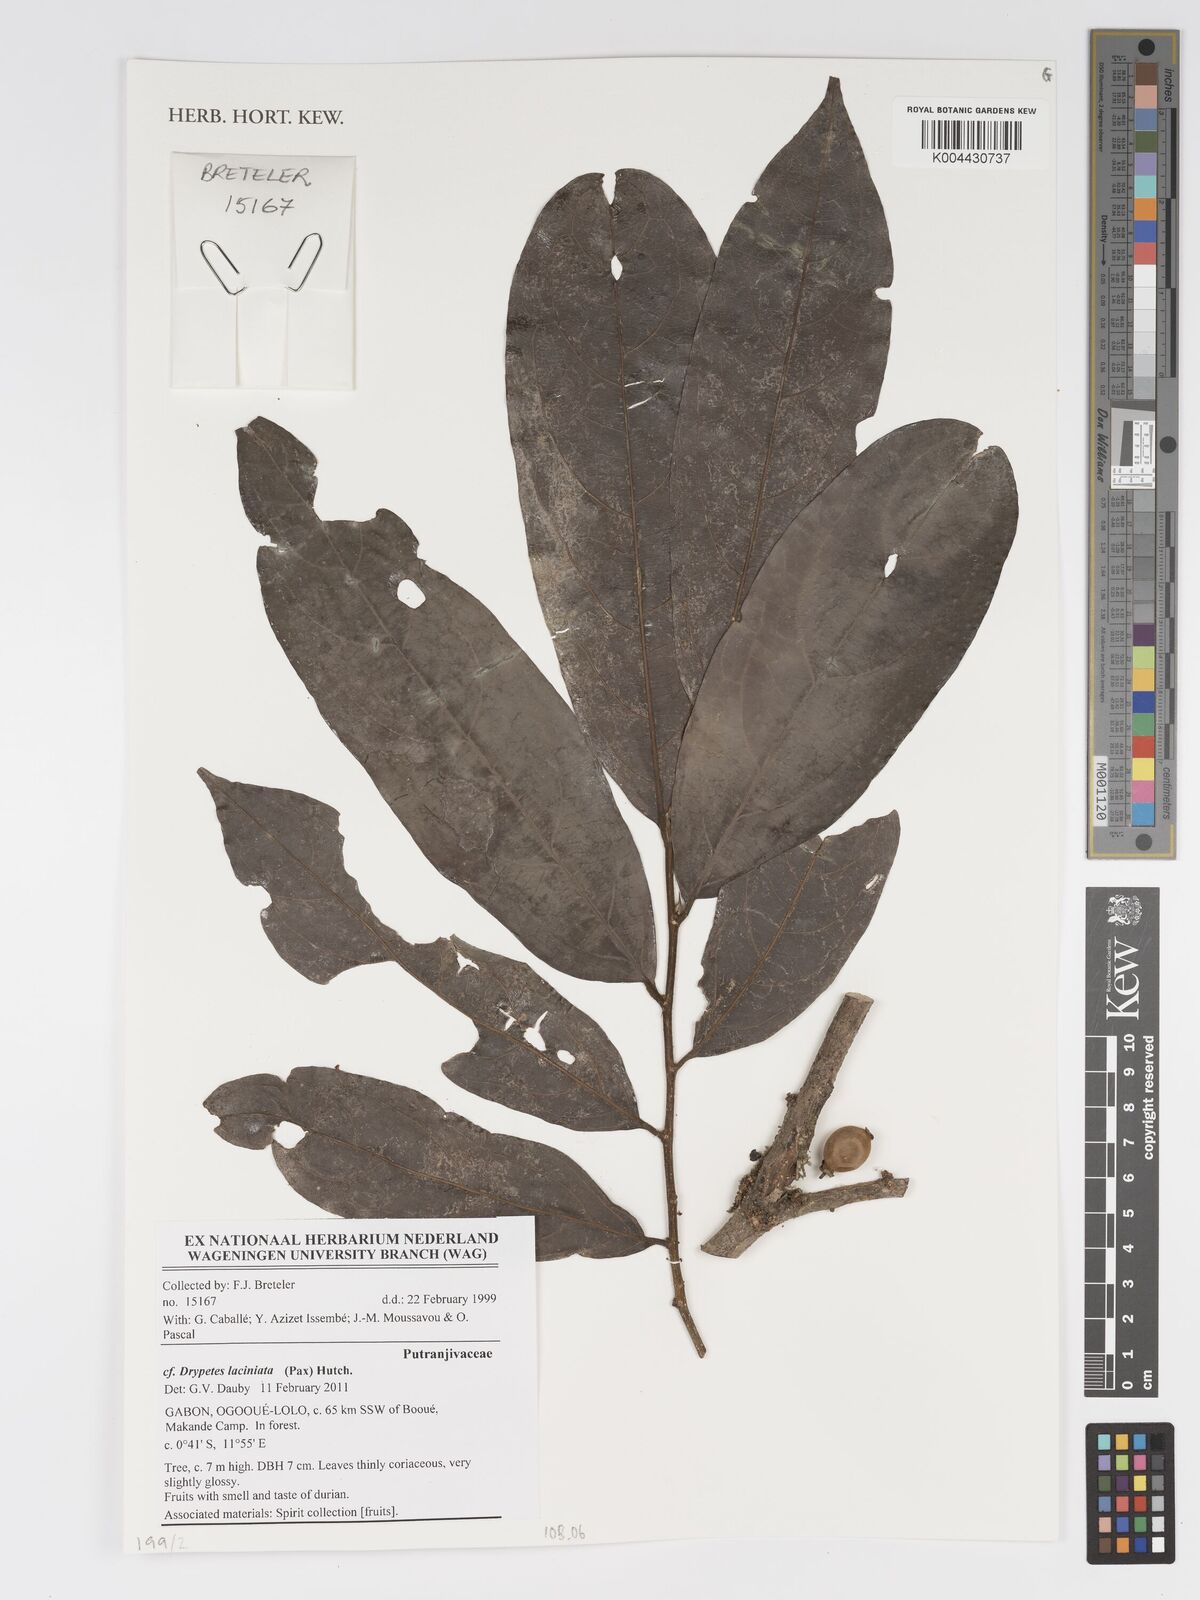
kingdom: Plantae
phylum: Tracheophyta
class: Magnoliopsida
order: Malpighiales
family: Putranjivaceae
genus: Drypetes
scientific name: Drypetes laciniata
